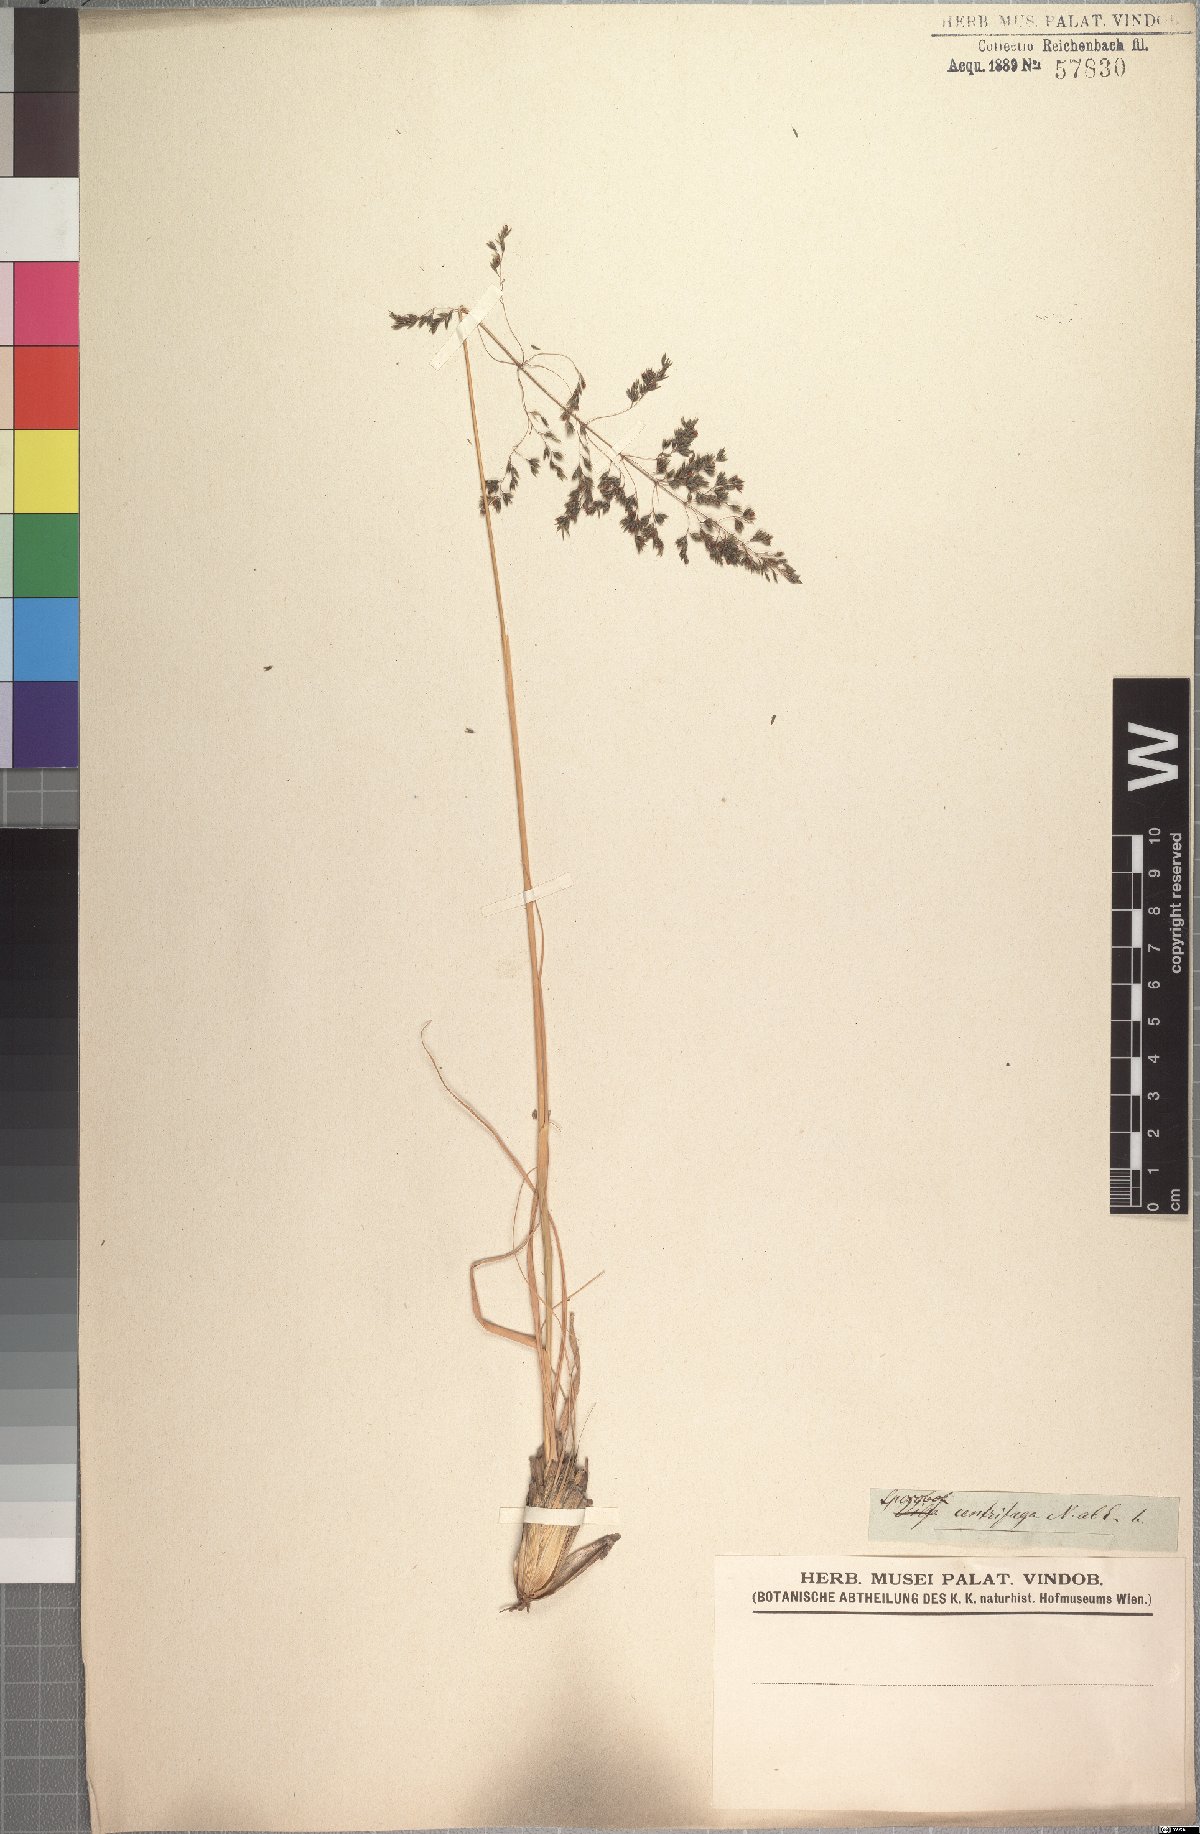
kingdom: Plantae
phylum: Tracheophyta
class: Liliopsida
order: Poales
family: Poaceae
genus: Sporobolus
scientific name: Sporobolus centrifugus
